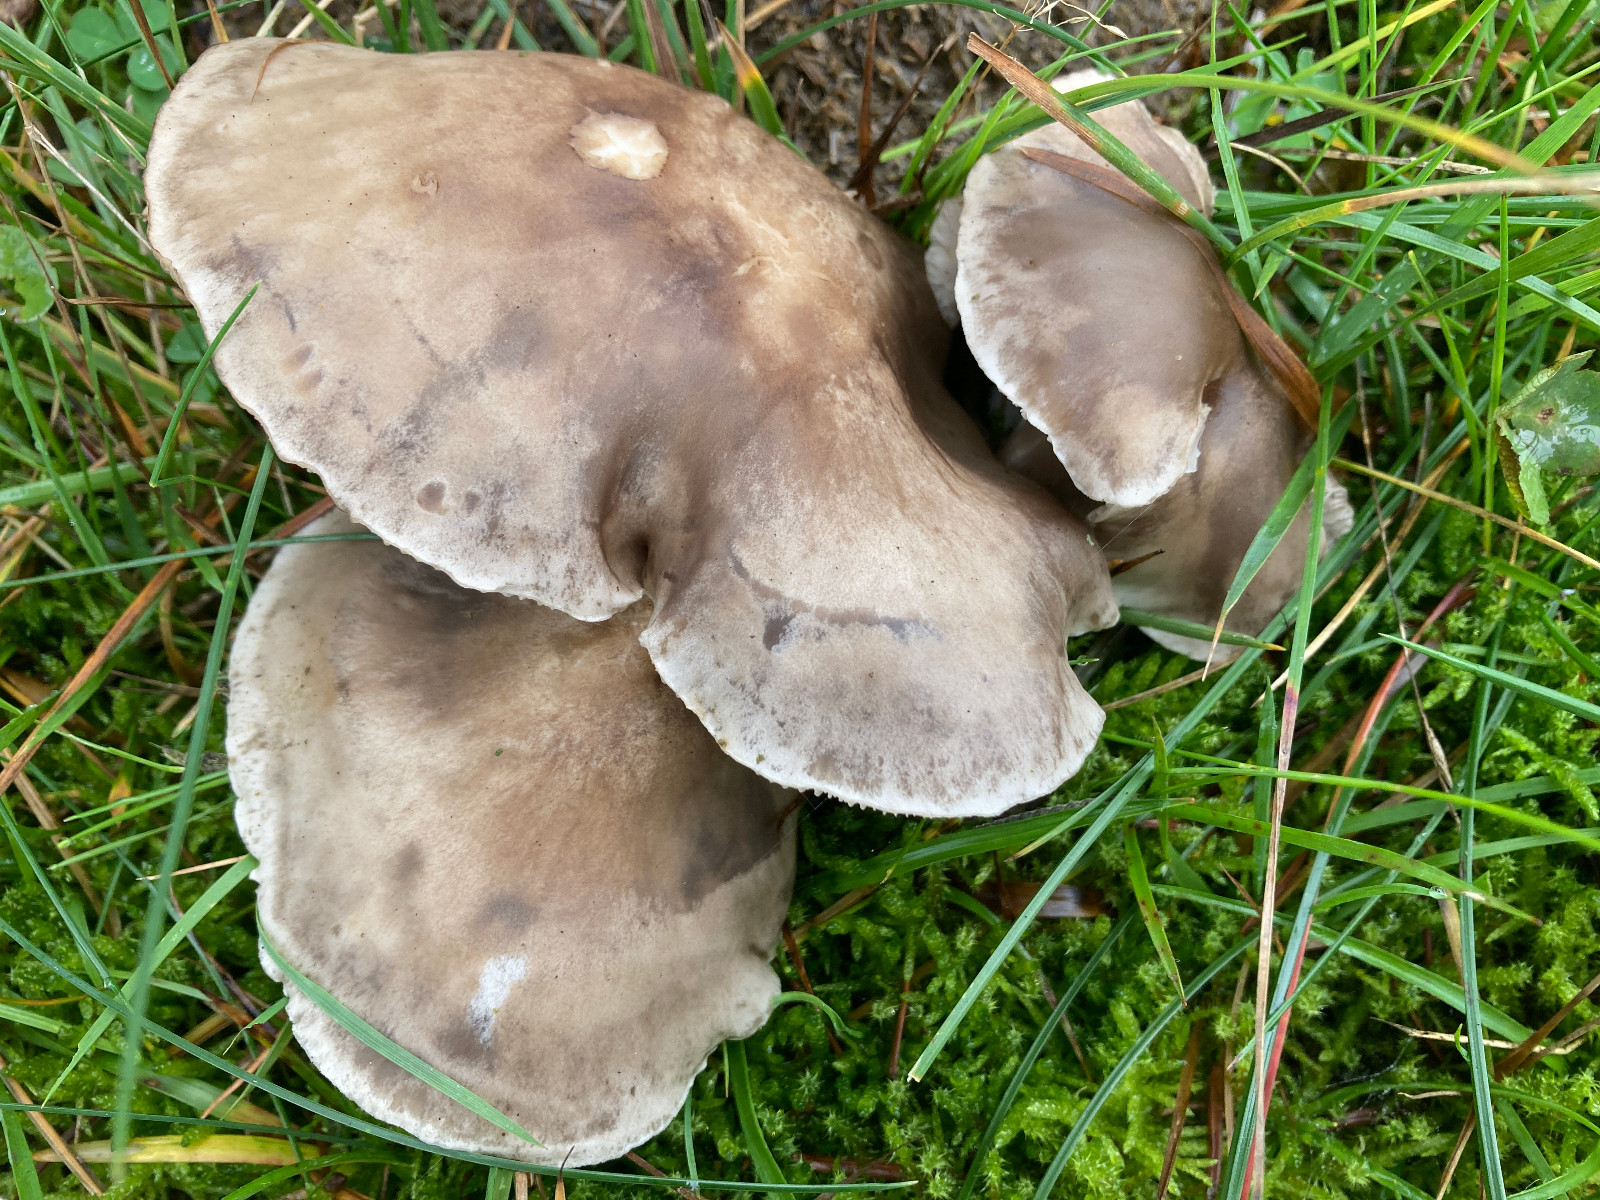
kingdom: Fungi
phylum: Basidiomycota
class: Agaricomycetes
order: Agaricales
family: Tricholomataceae
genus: Tricholoma
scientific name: Tricholoma
